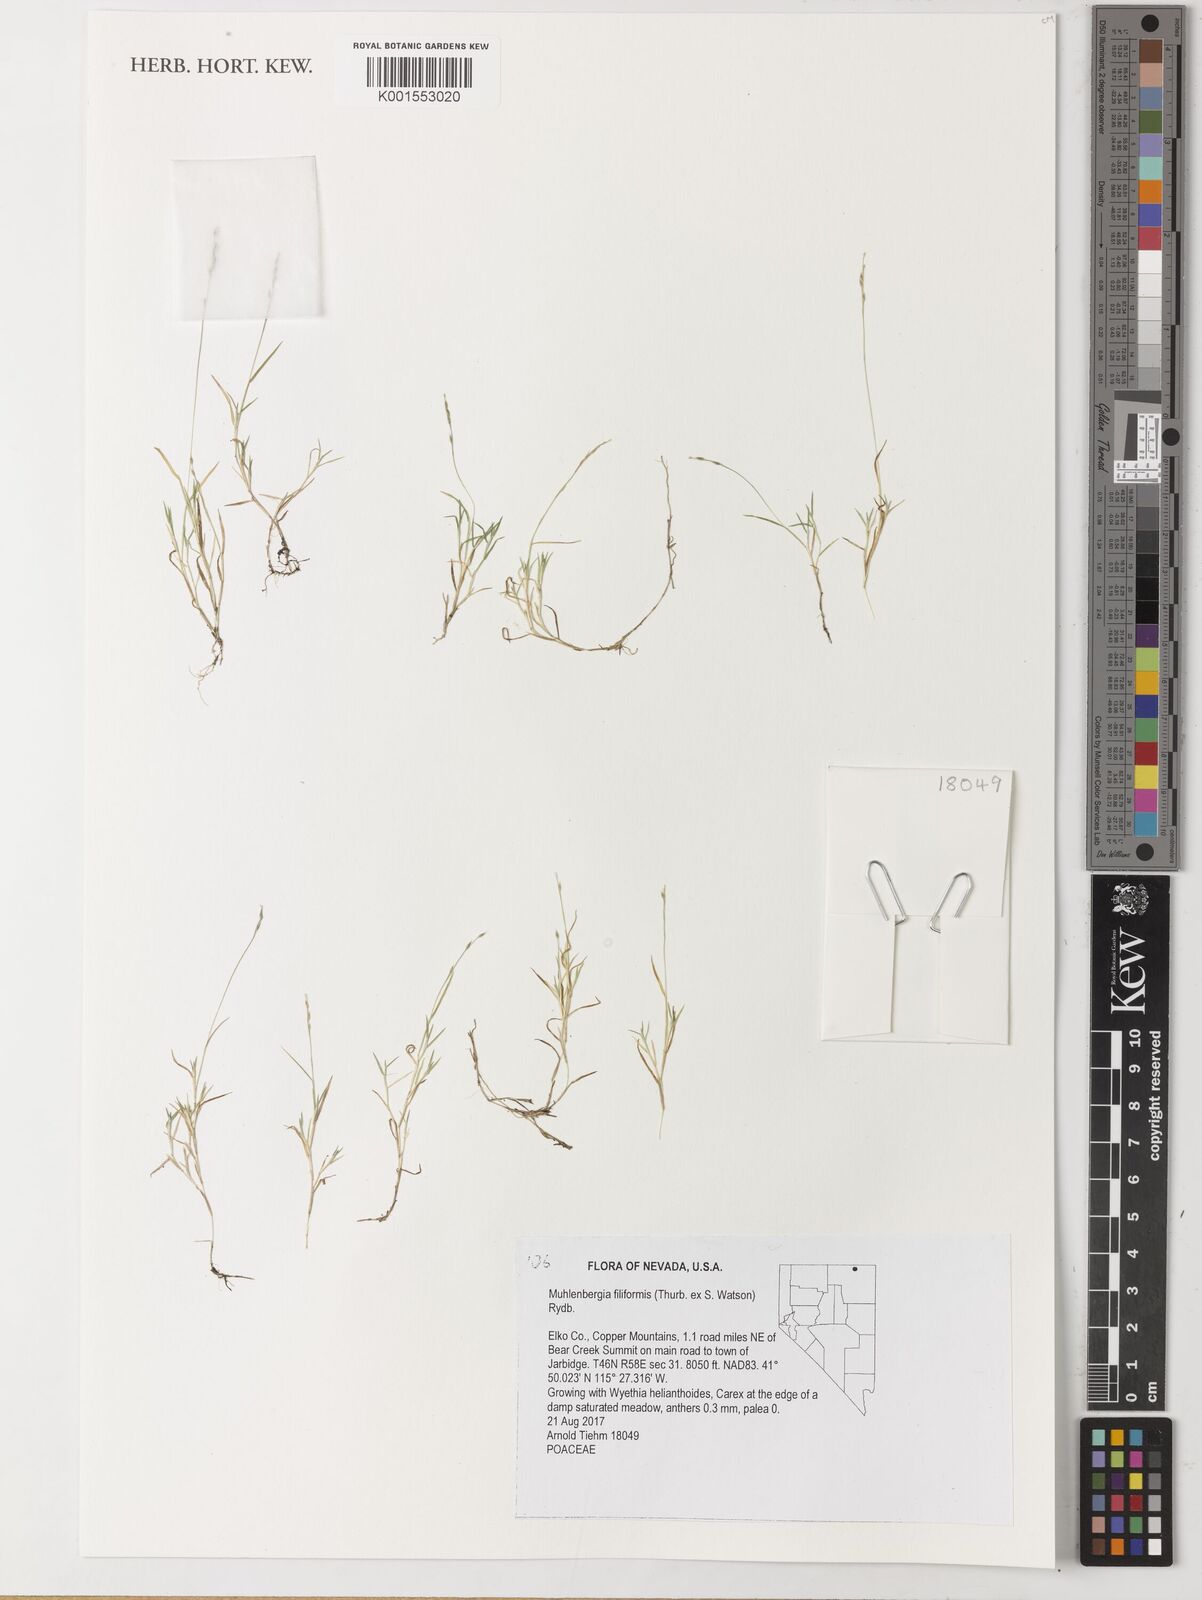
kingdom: Plantae
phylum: Tracheophyta
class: Liliopsida
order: Poales
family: Poaceae
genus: Muhlenbergia
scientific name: Muhlenbergia filiformis
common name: Pull-up muhly
